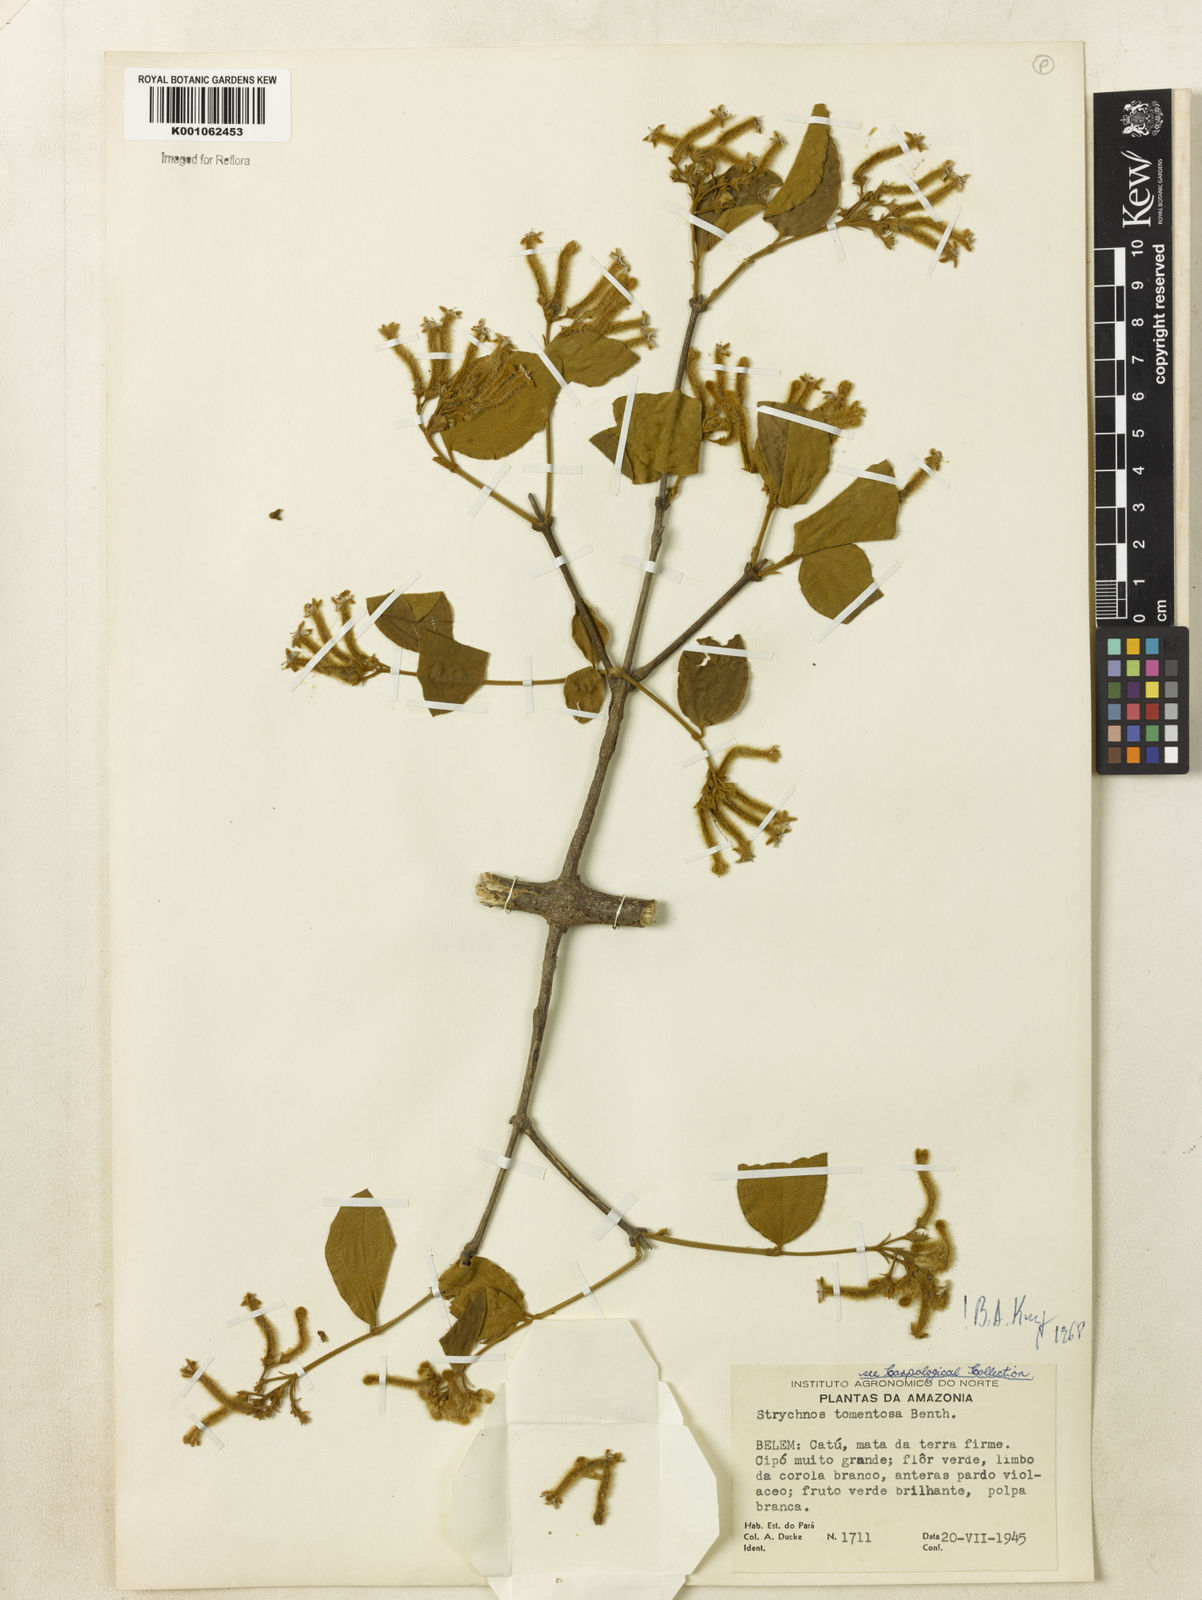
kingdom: Plantae
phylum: Tracheophyta
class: Magnoliopsida
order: Gentianales
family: Loganiaceae
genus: Strychnos
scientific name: Strychnos tomentosa
